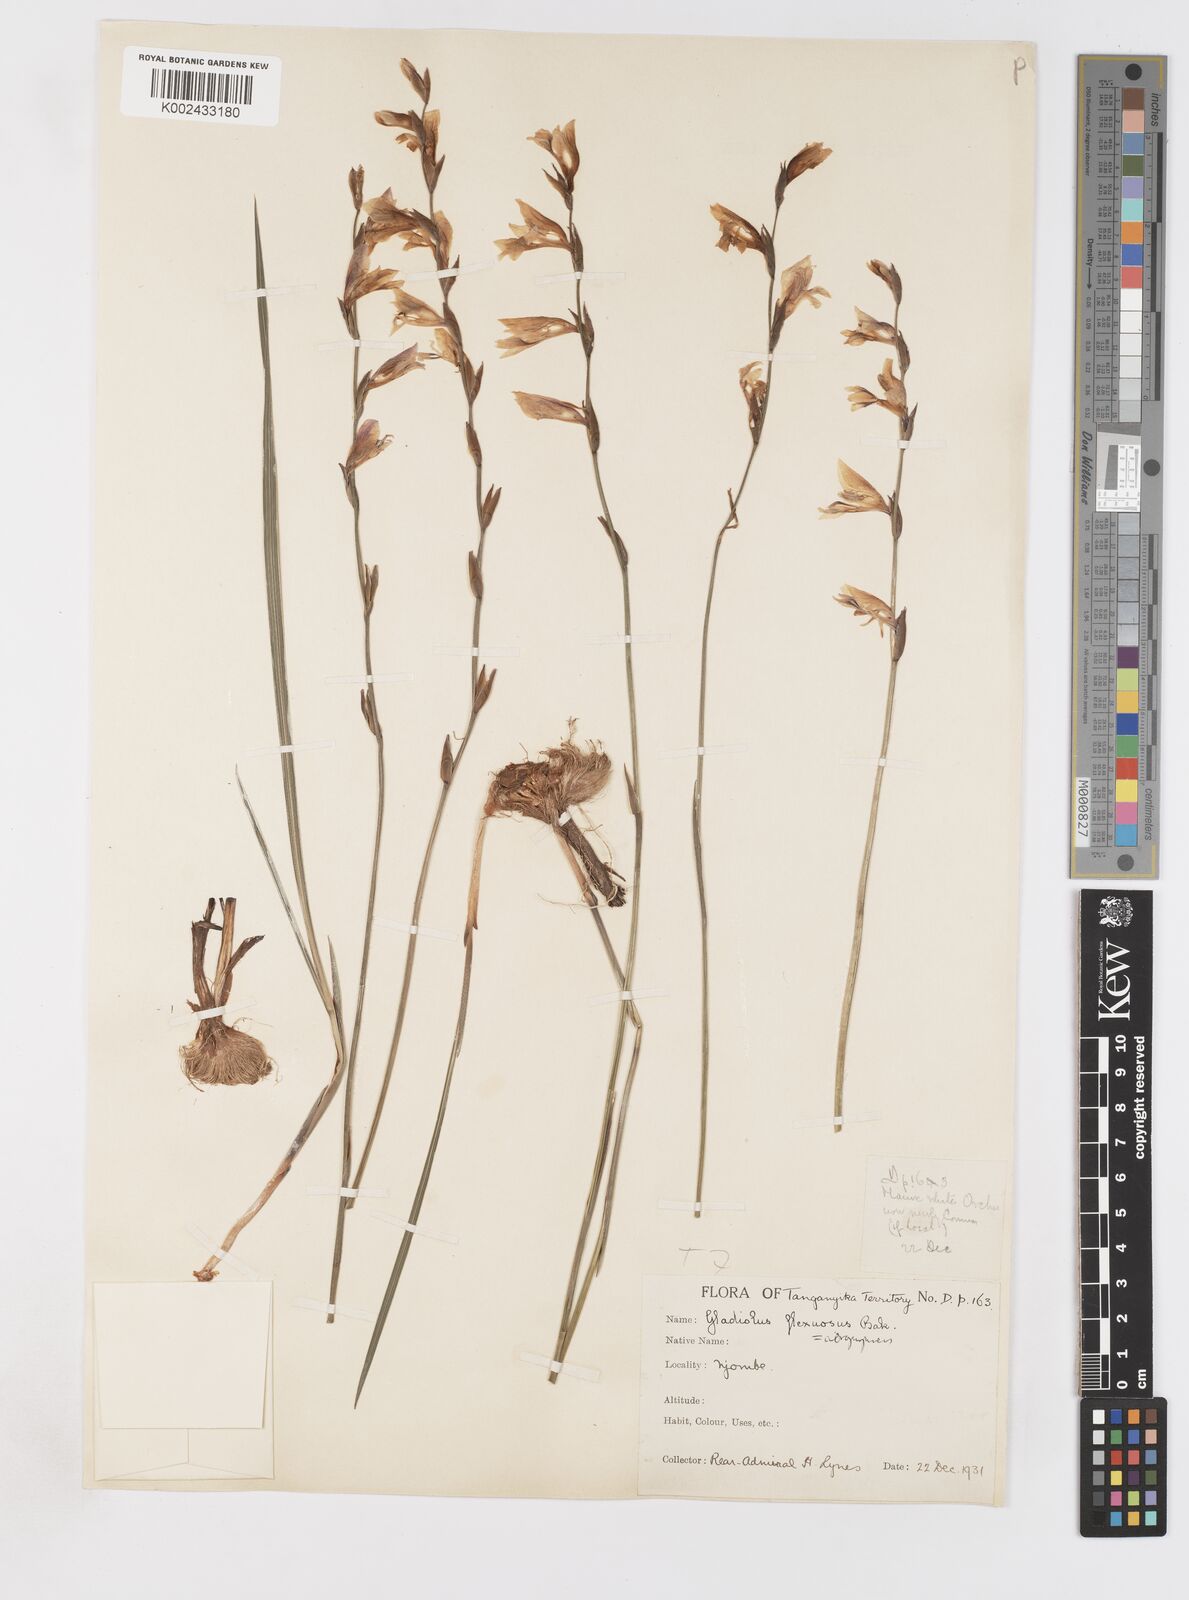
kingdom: Plantae
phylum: Tracheophyta
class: Liliopsida
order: Asparagales
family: Iridaceae
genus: Gladiolus
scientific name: Gladiolus atropurpureus
